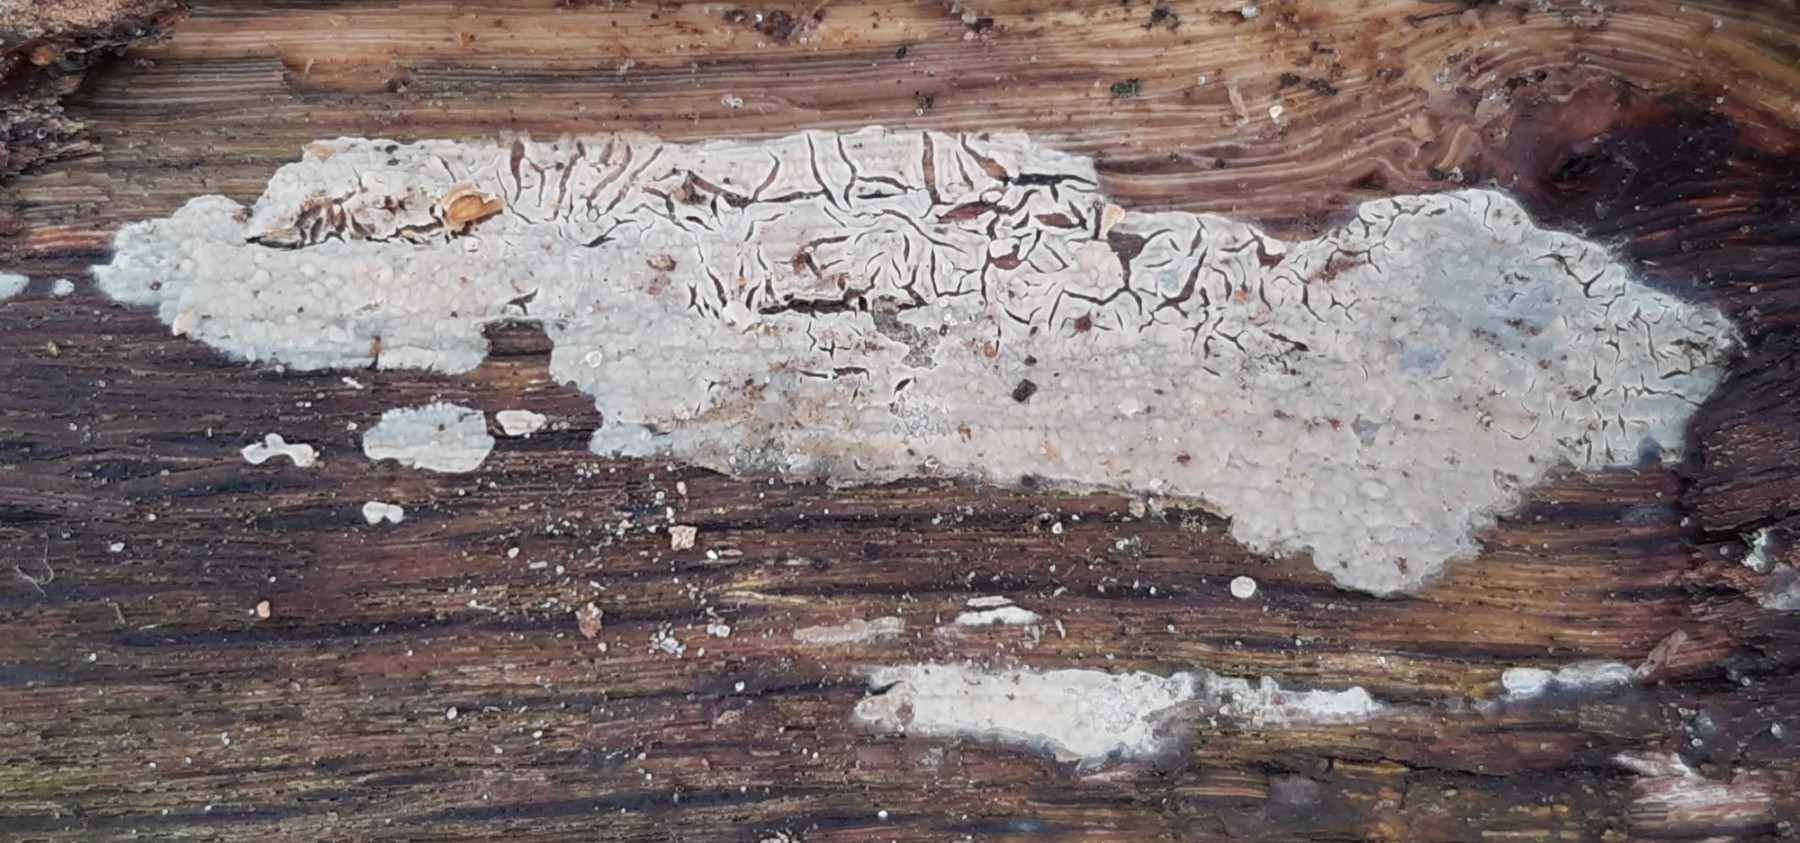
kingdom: Fungi
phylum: Basidiomycota
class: Agaricomycetes
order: Agaricales
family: Radulomycetaceae
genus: Radulomyces
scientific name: Radulomyces confluens
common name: glat naftalinskind
